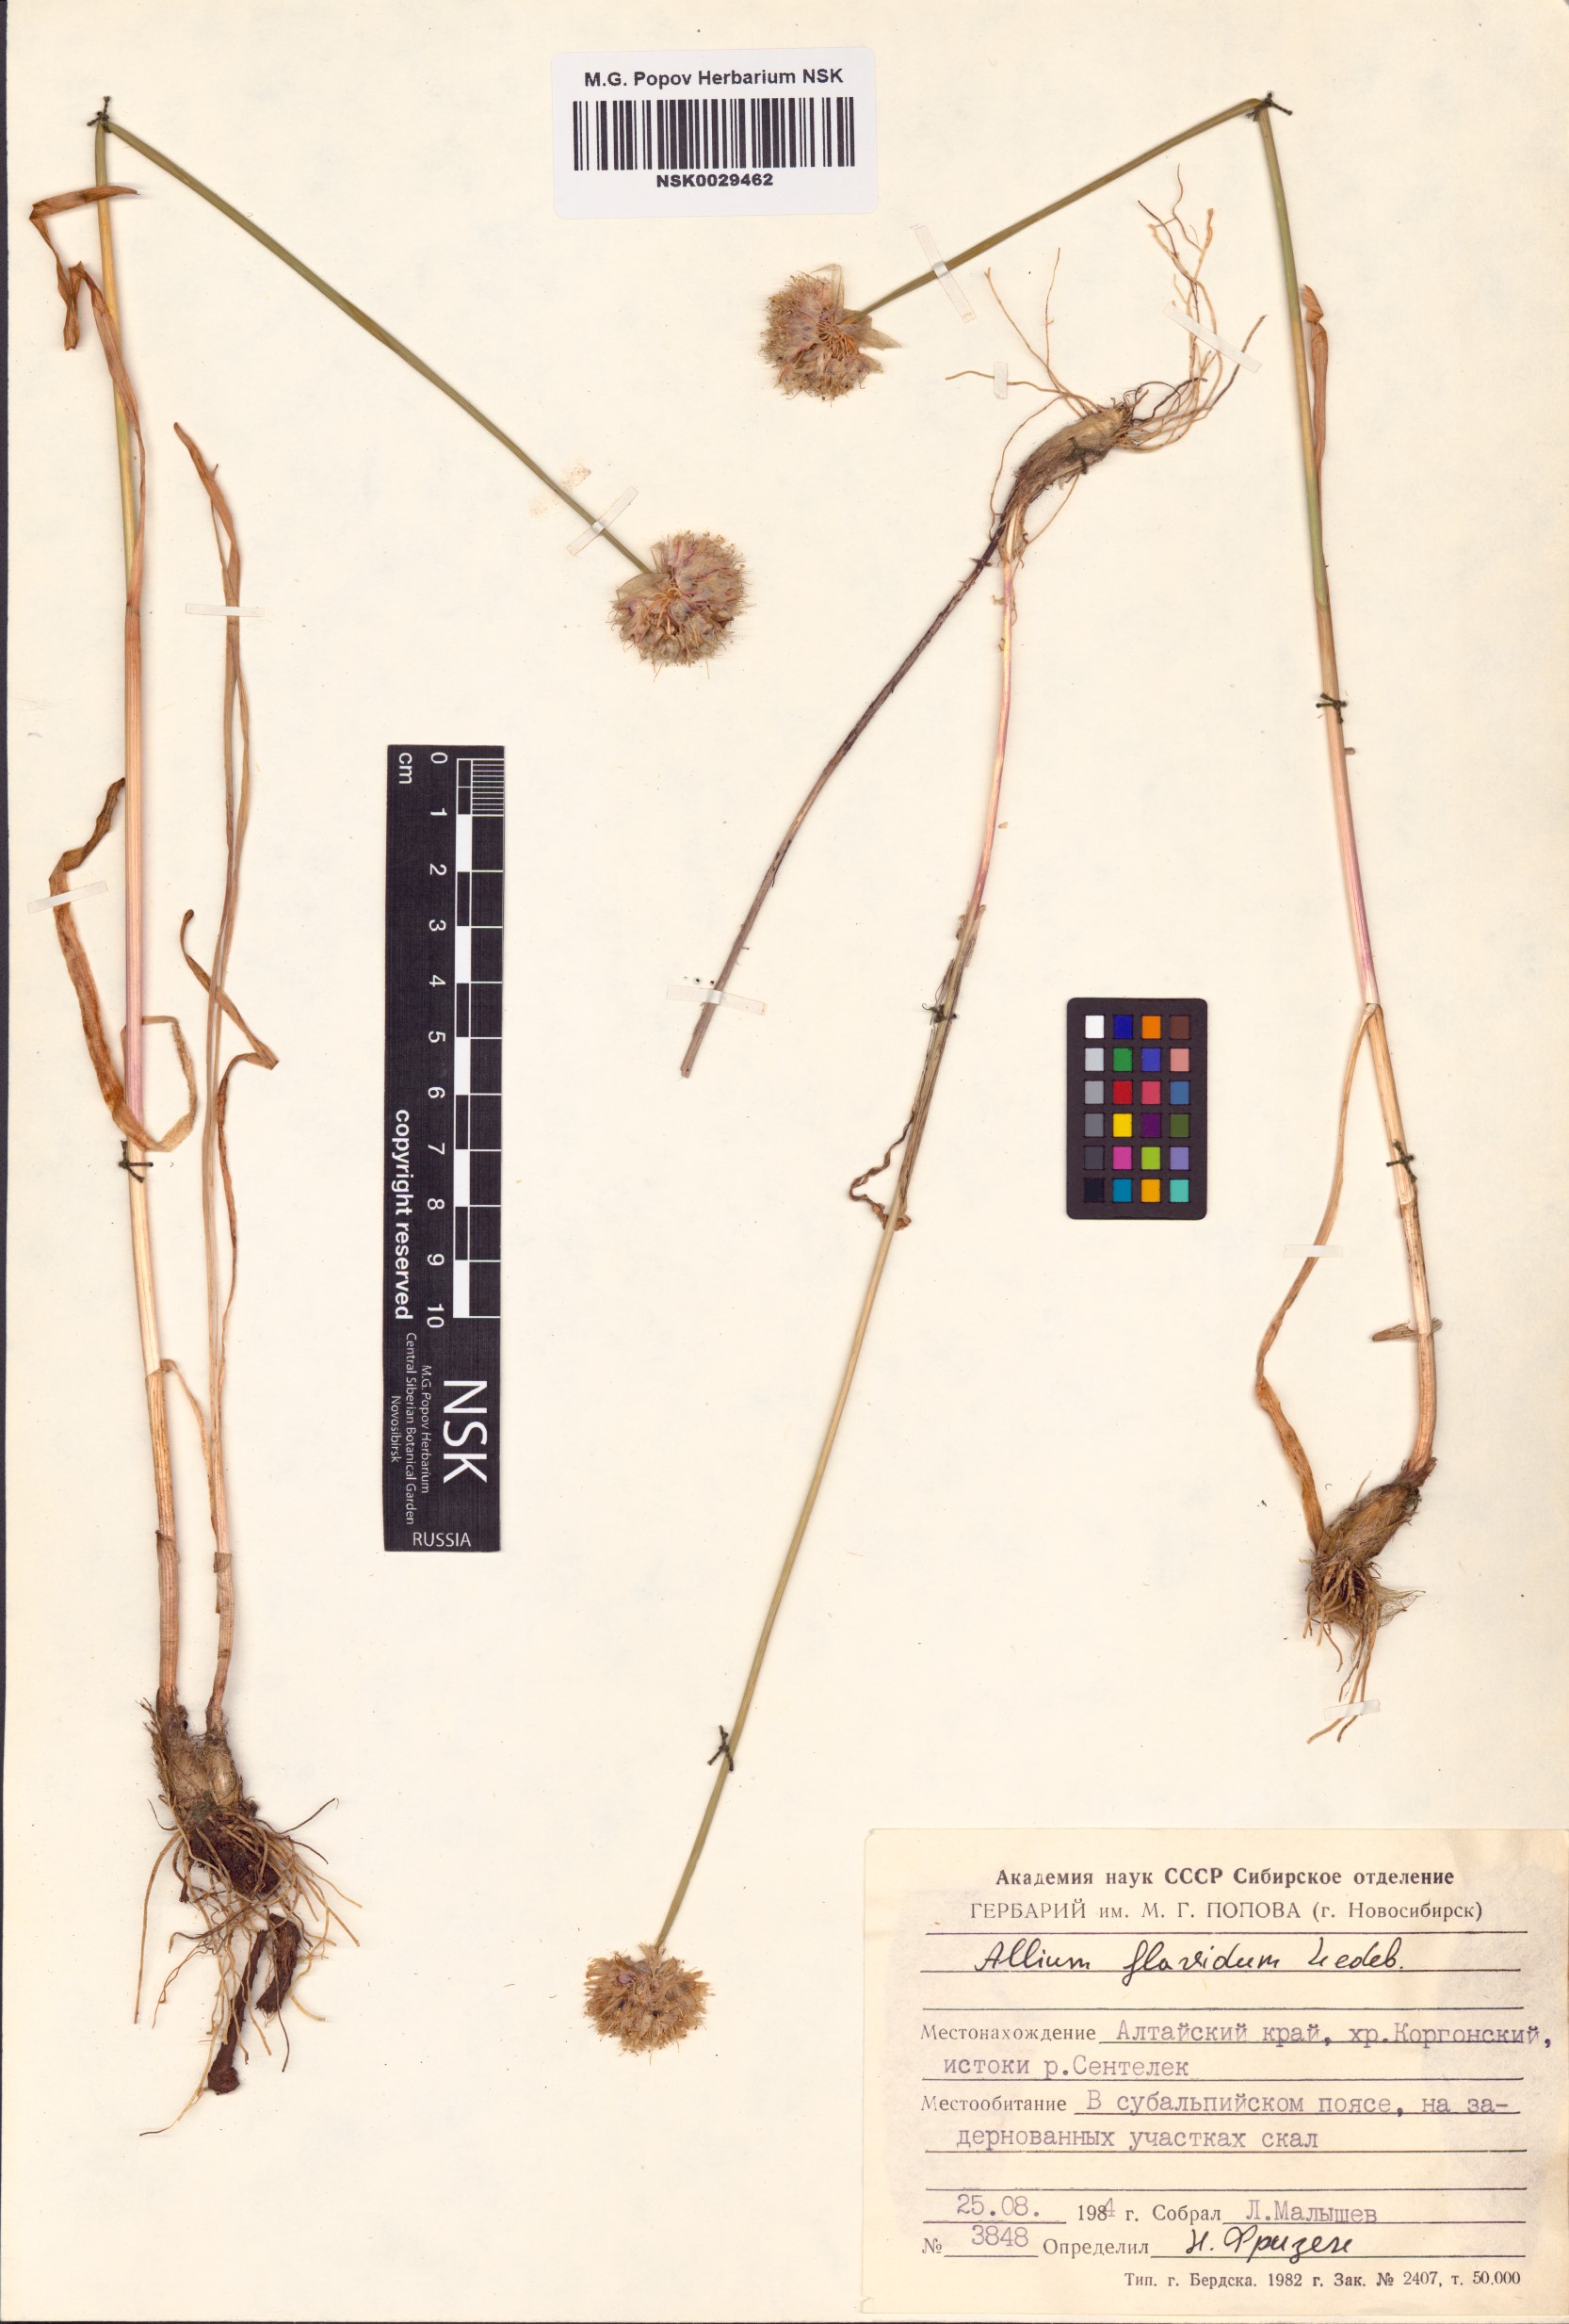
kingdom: Plantae
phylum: Tracheophyta
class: Liliopsida
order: Asparagales
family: Amaryllidaceae
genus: Allium
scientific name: Allium flavidum
